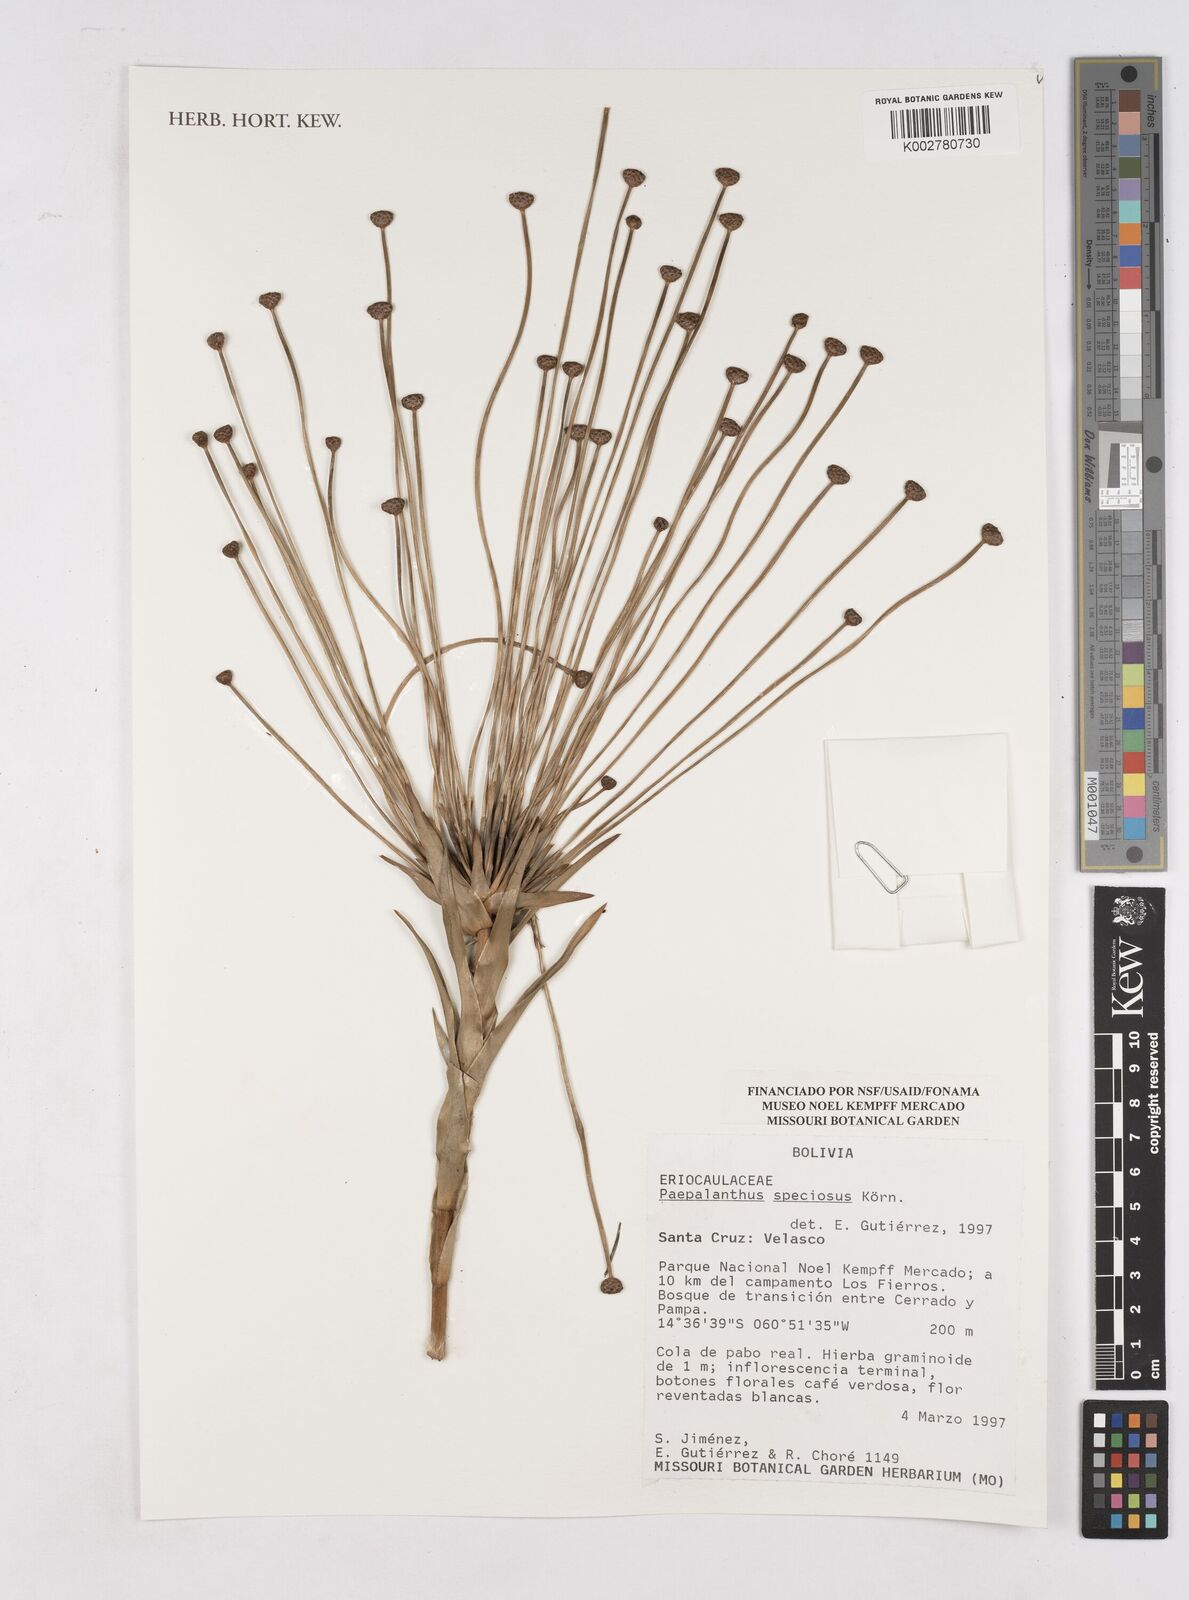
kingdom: Plantae
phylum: Tracheophyta
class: Liliopsida
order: Poales
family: Eriocaulaceae
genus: Paepalanthus
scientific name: Paepalanthus chiquitensis
